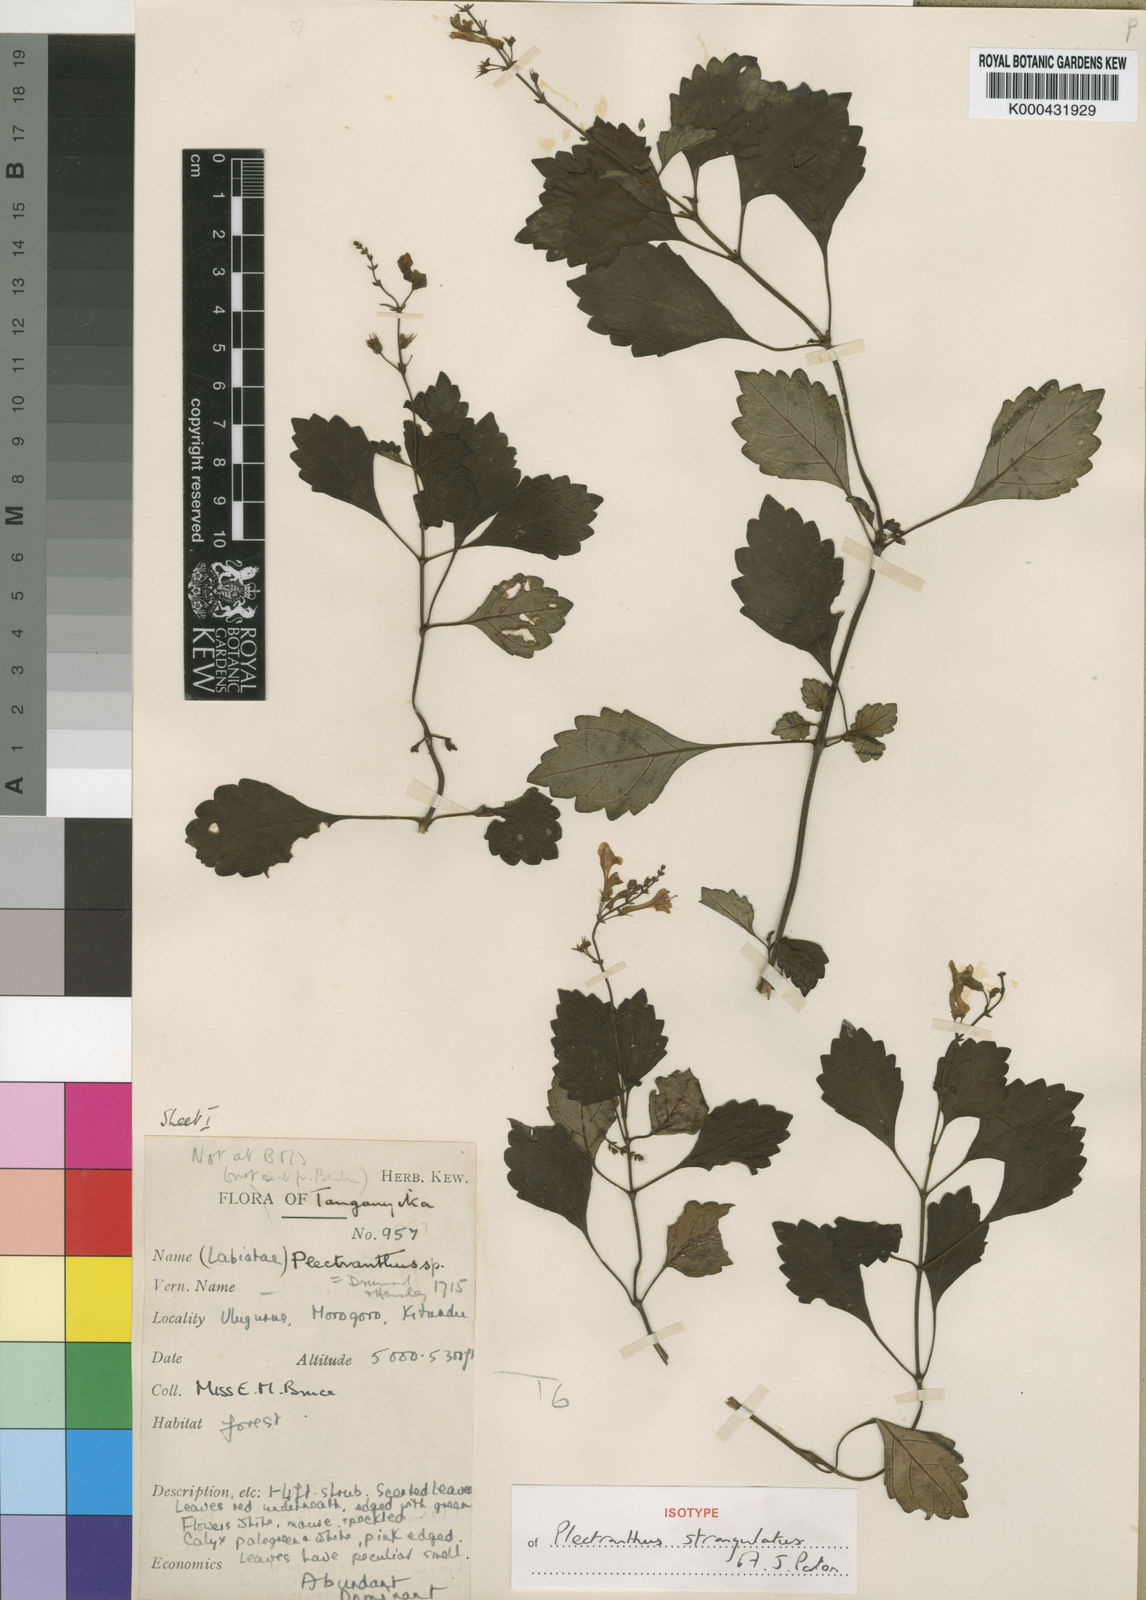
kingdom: Plantae
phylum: Tracheophyta
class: Magnoliopsida
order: Lamiales
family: Lamiaceae
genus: Plectranthus
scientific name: Plectranthus strangulatus
